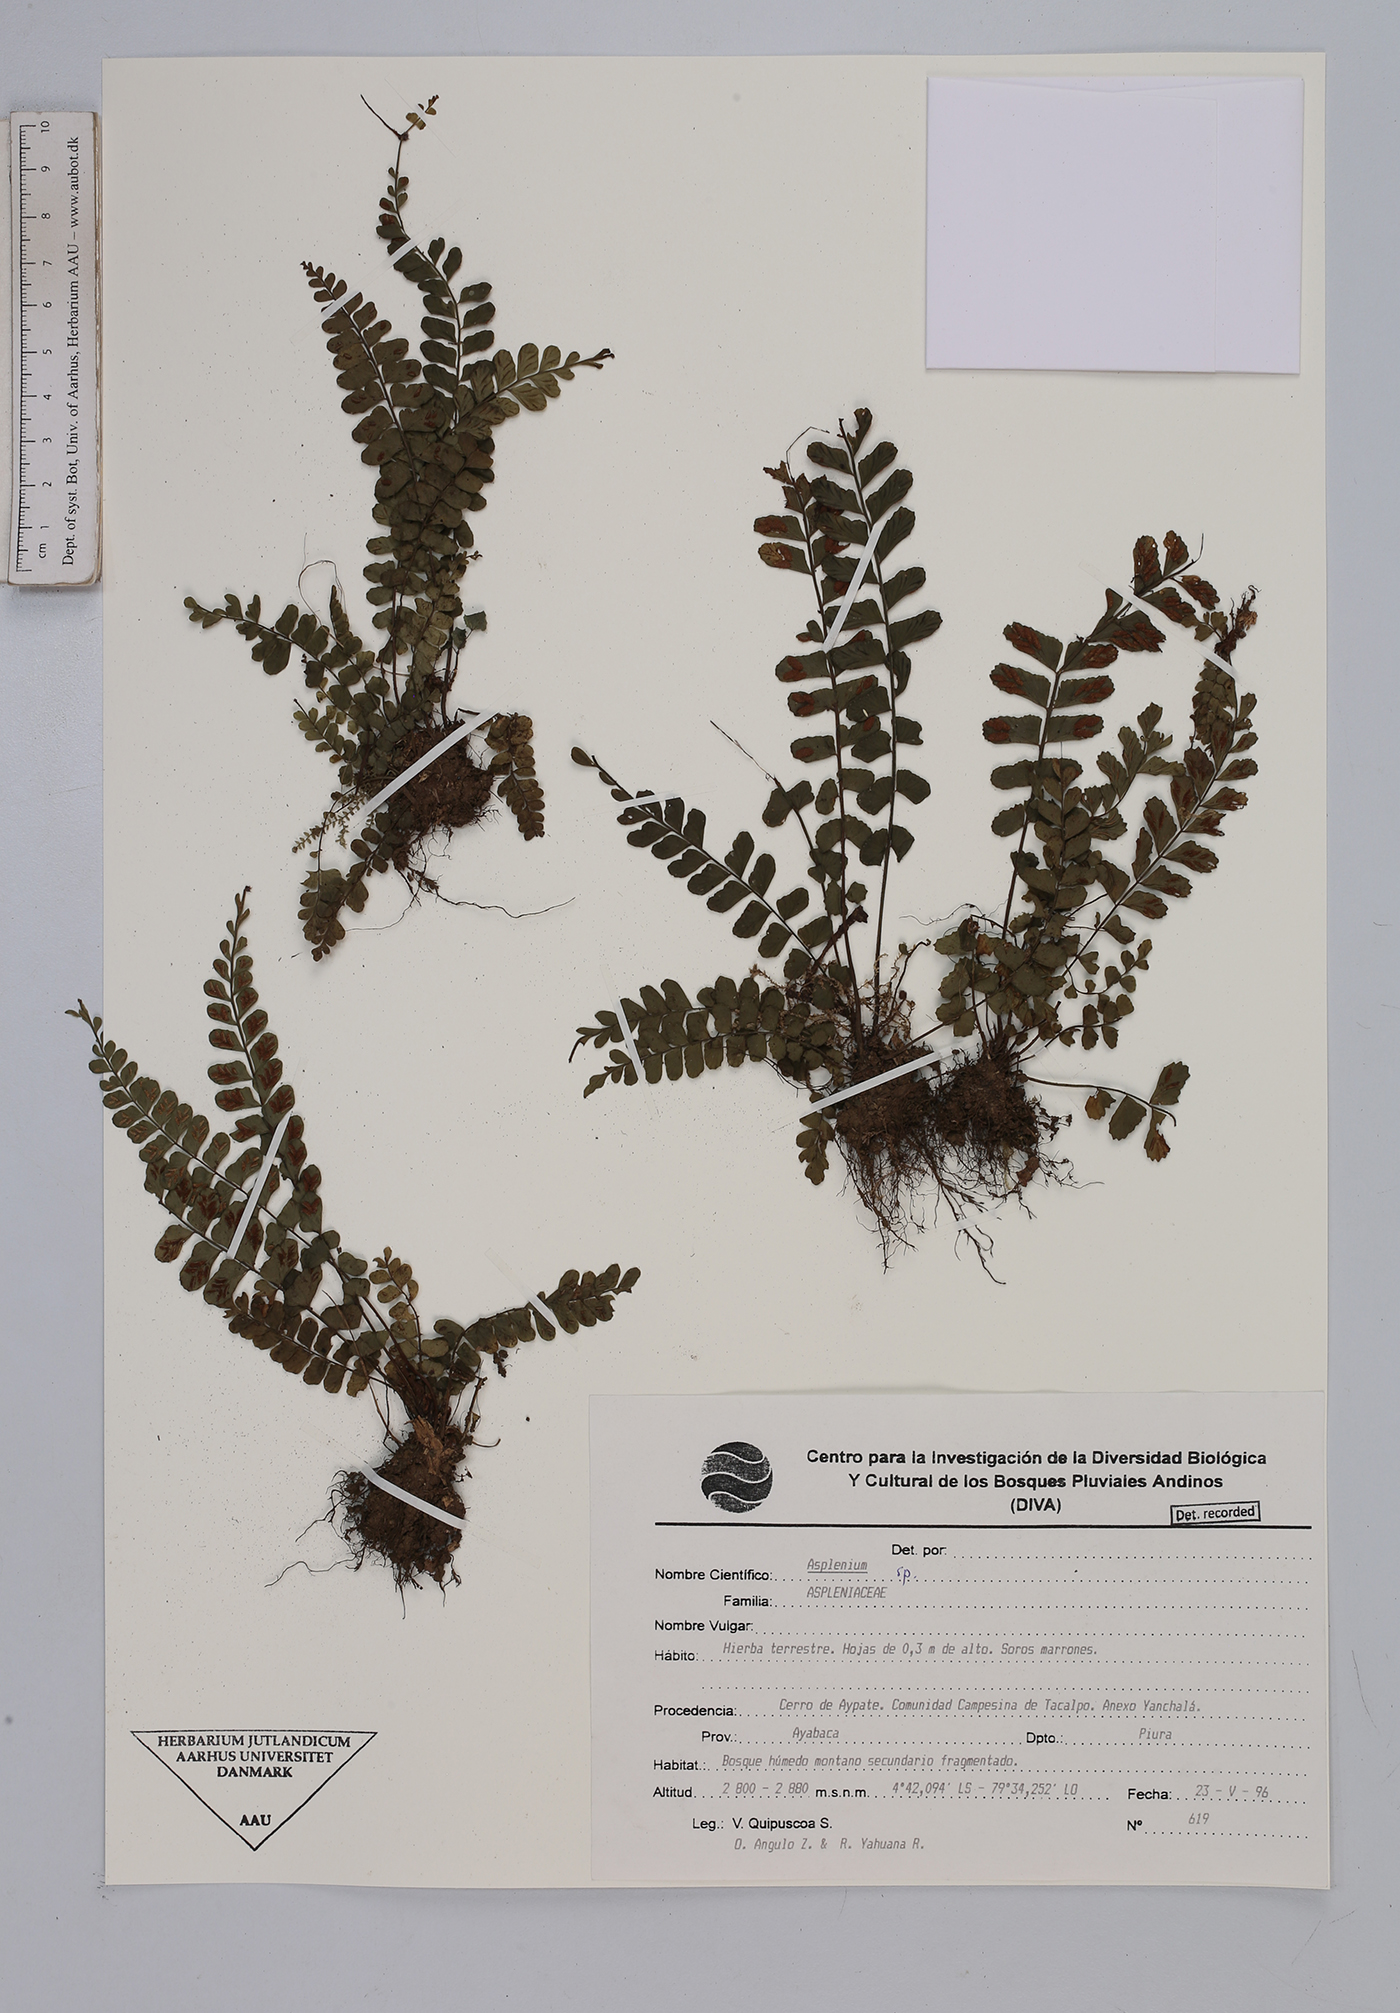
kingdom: Plantae
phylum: Tracheophyta
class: Polypodiopsida
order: Polypodiales
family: Aspleniaceae
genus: Asplenium
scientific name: Asplenium
